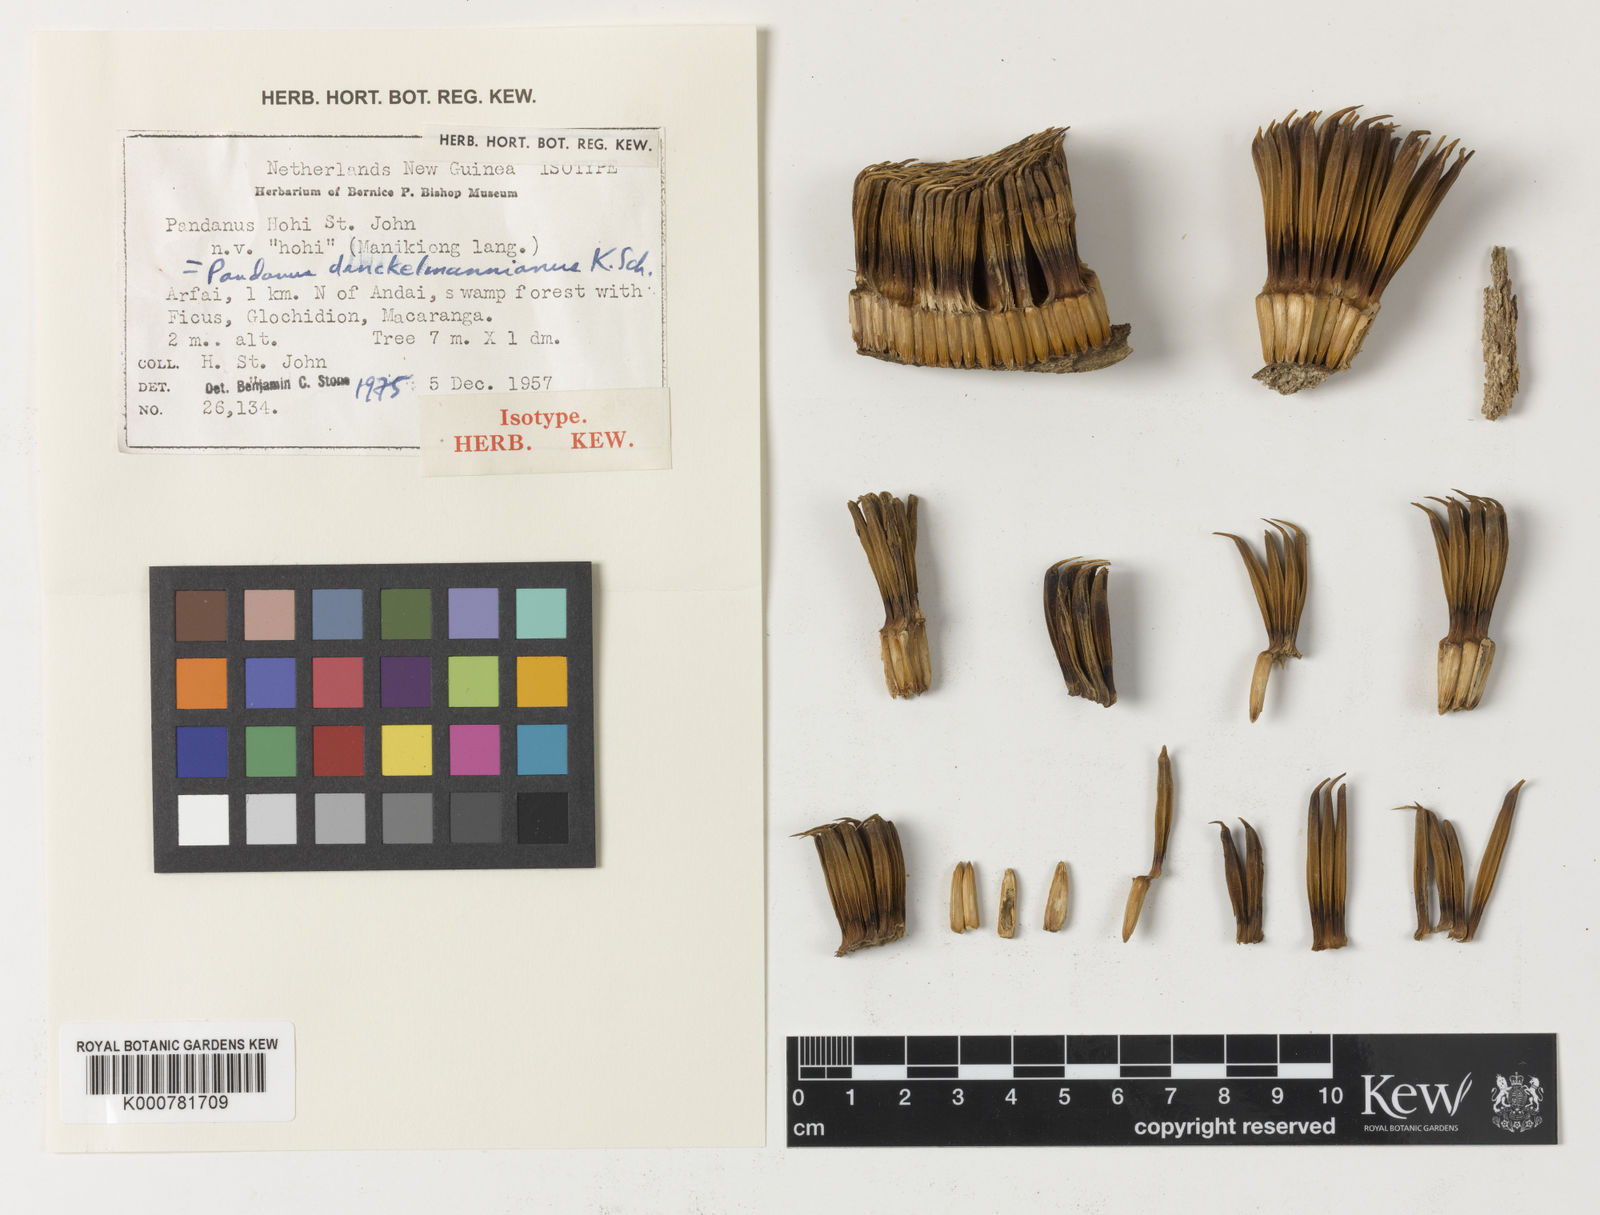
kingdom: Plantae
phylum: Tracheophyta
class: Liliopsida
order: Pandanales
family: Pandanaceae
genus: Benstonea
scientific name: Benstonea stenocarpa
